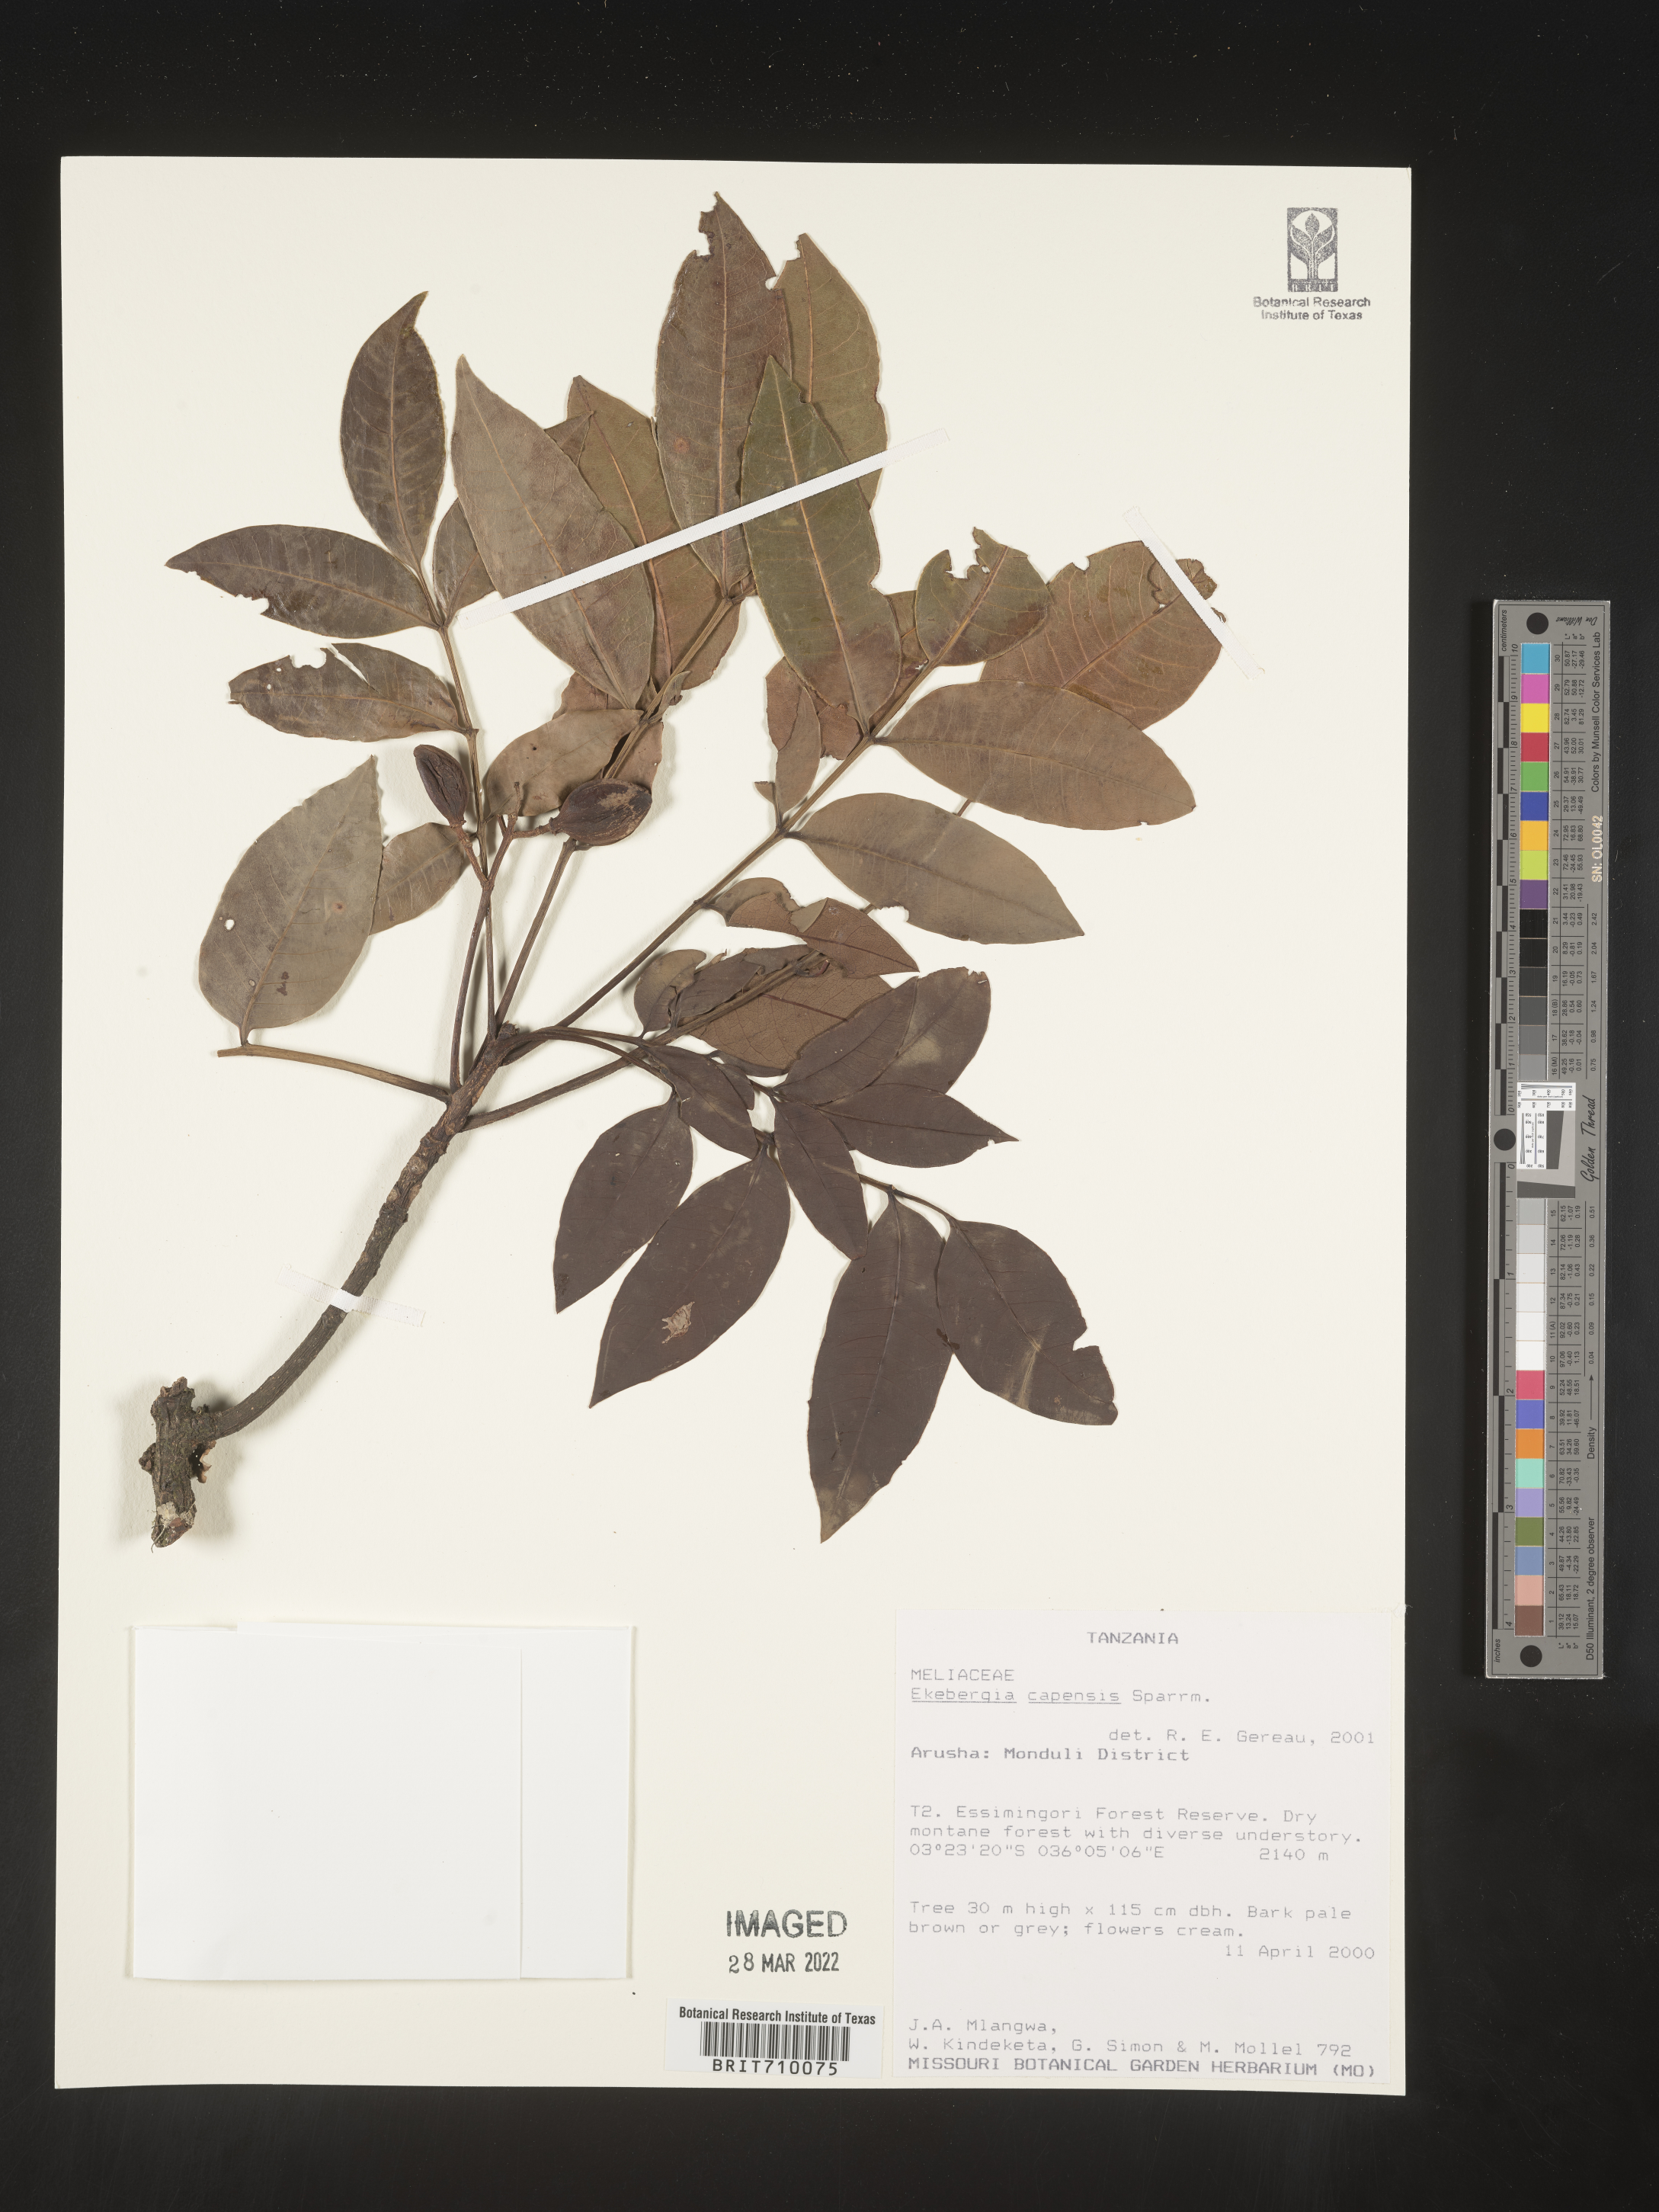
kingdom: Plantae
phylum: Tracheophyta
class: Magnoliopsida
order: Sapindales
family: Meliaceae
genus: Ekebergia
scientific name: Ekebergia
